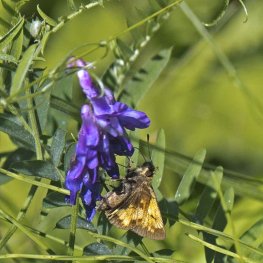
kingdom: Animalia
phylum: Arthropoda
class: Insecta
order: Lepidoptera
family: Hesperiidae
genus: Lon
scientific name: Lon hobomok
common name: Hobomok Skipper
